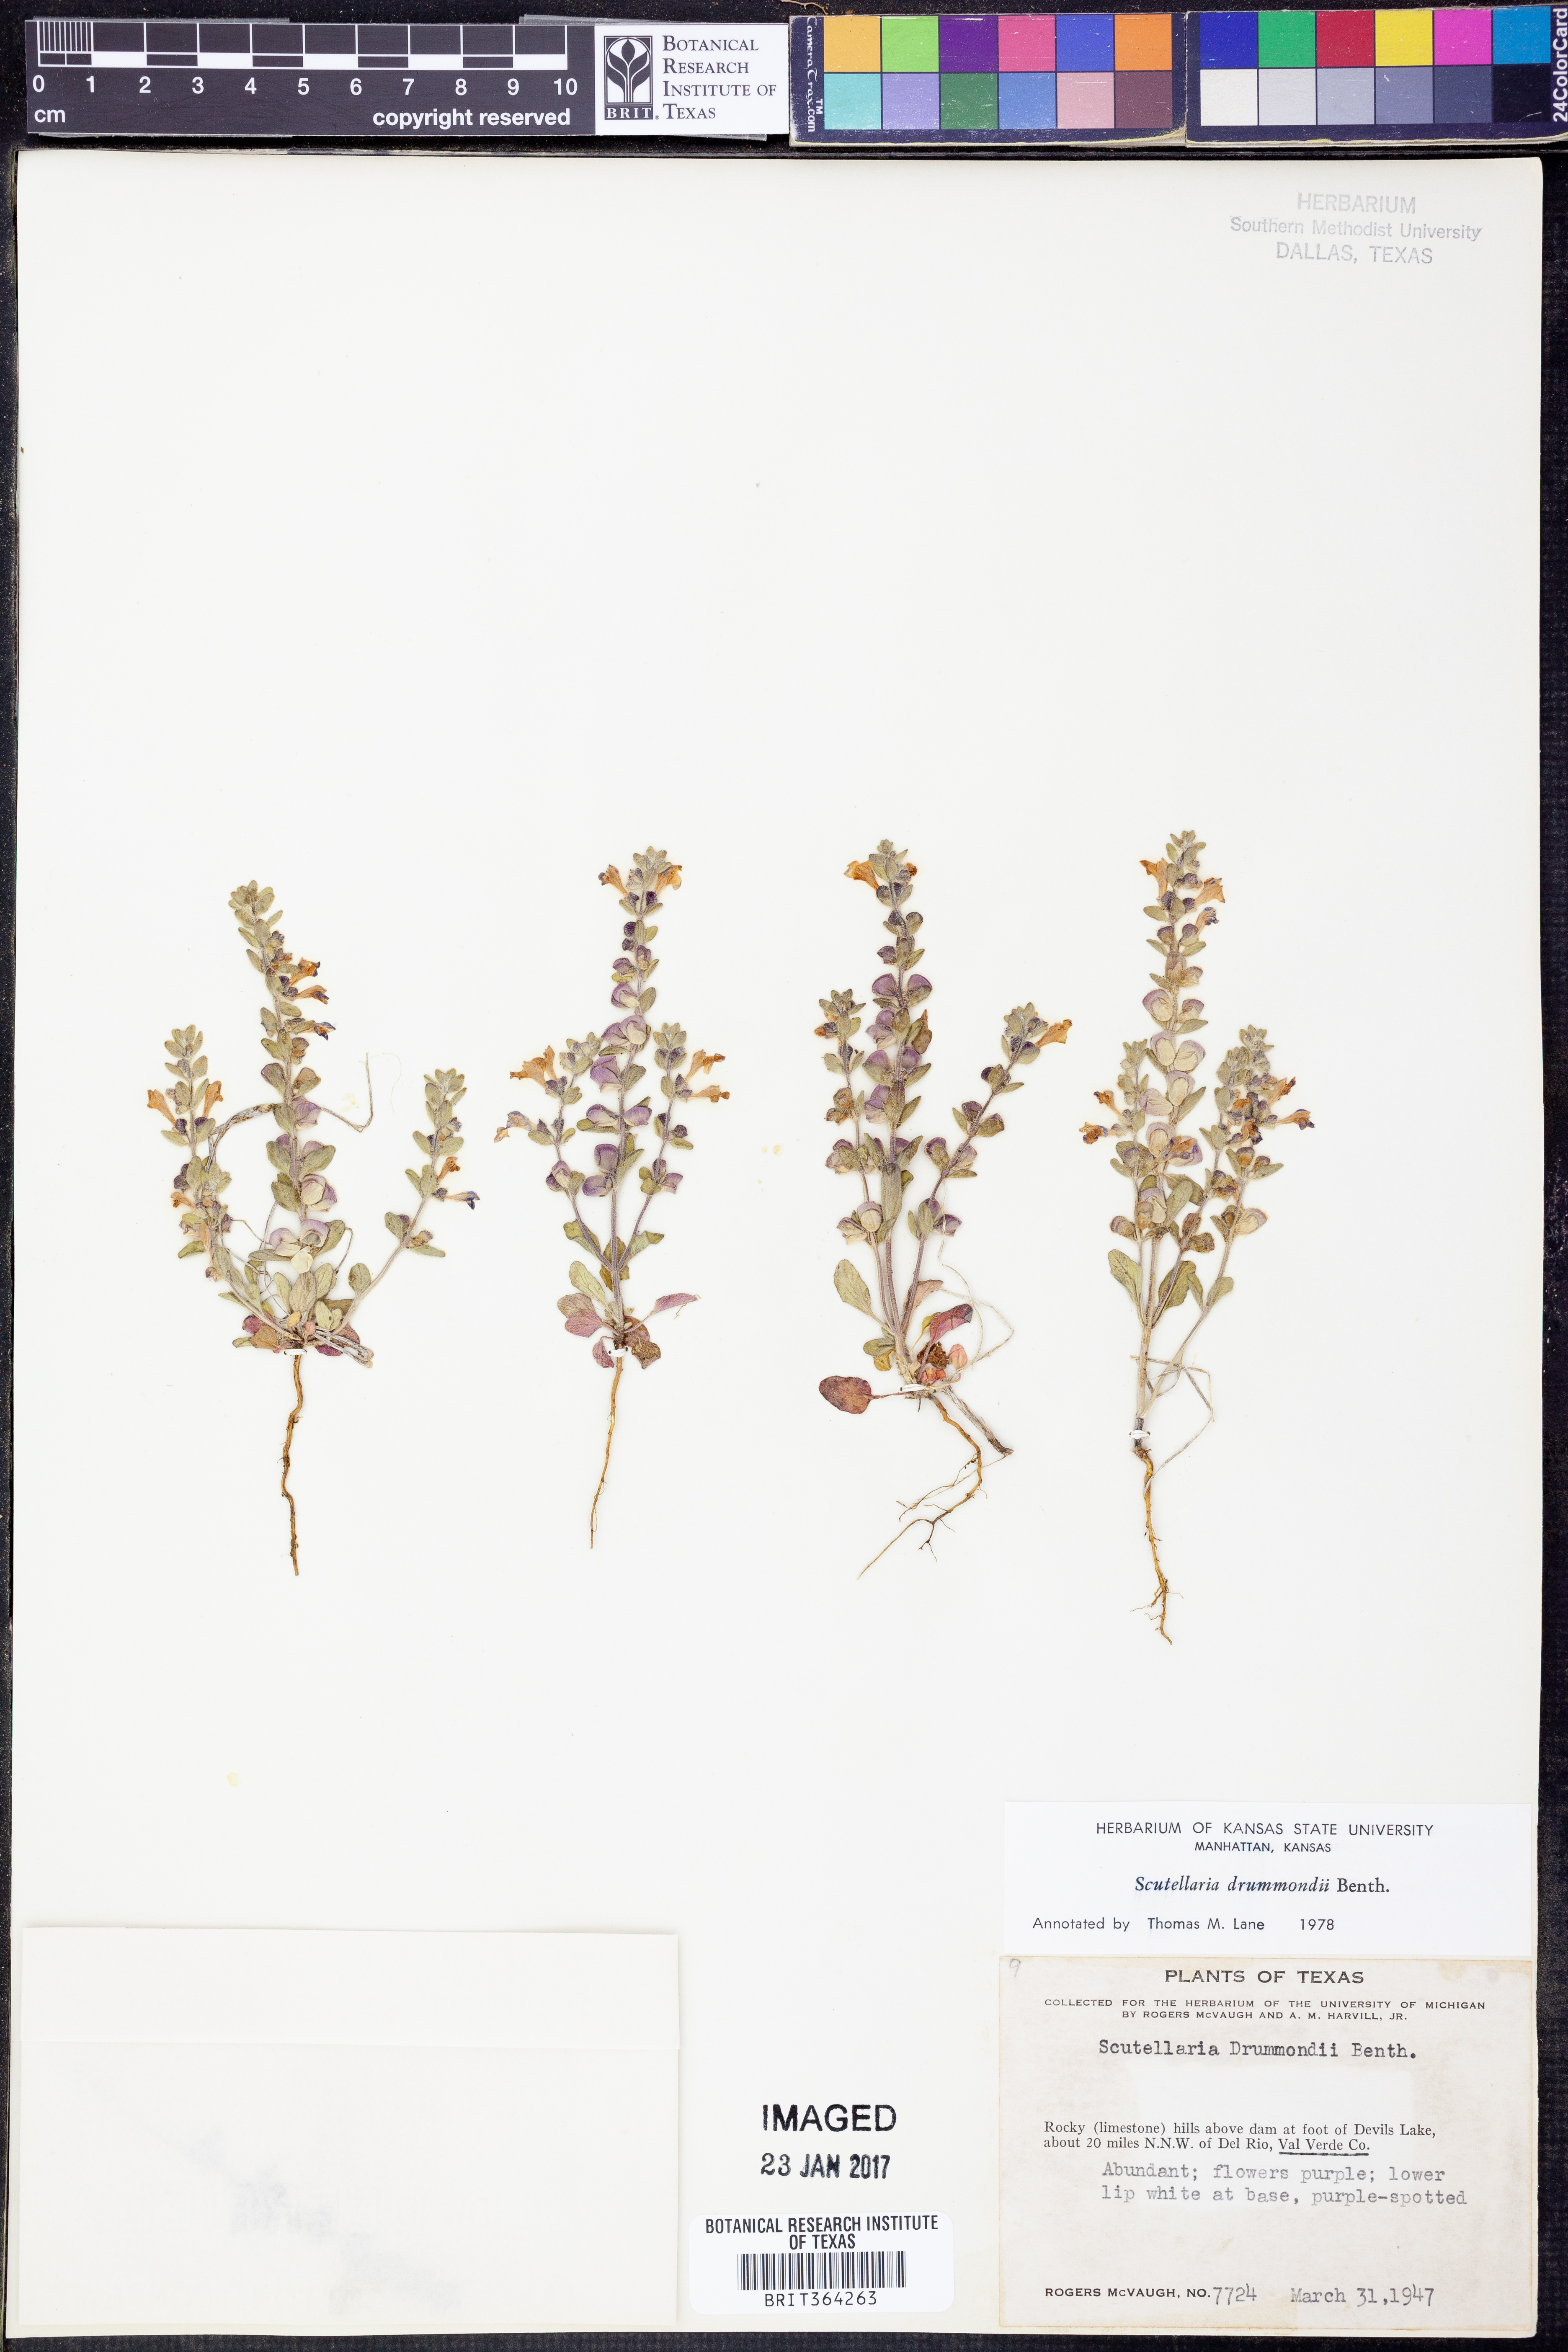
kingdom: Plantae
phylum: Tracheophyta
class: Magnoliopsida
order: Lamiales
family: Lamiaceae
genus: Scutellaria
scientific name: Scutellaria drummondii
